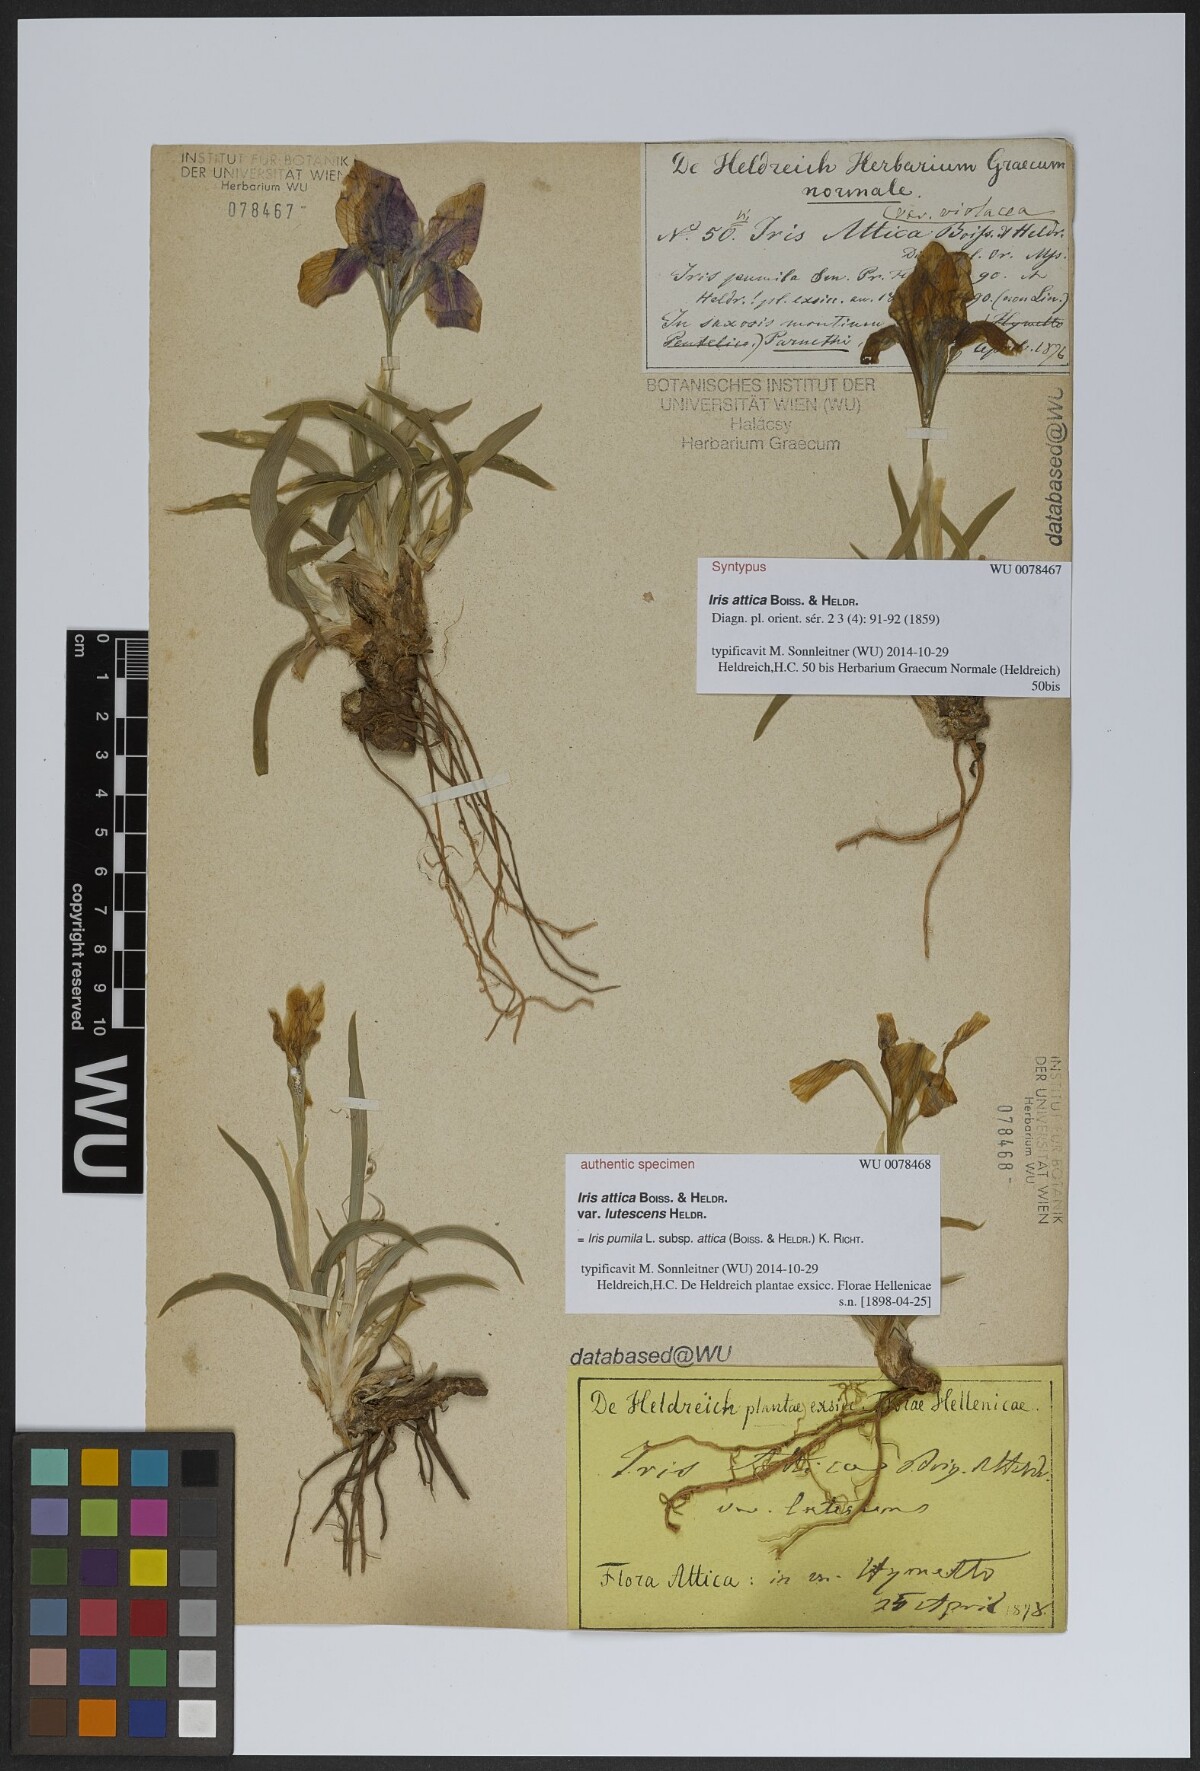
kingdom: Plantae
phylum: Tracheophyta
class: Liliopsida
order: Asparagales
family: Iridaceae
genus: Iris
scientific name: Iris pumila
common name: Dwarf iris
